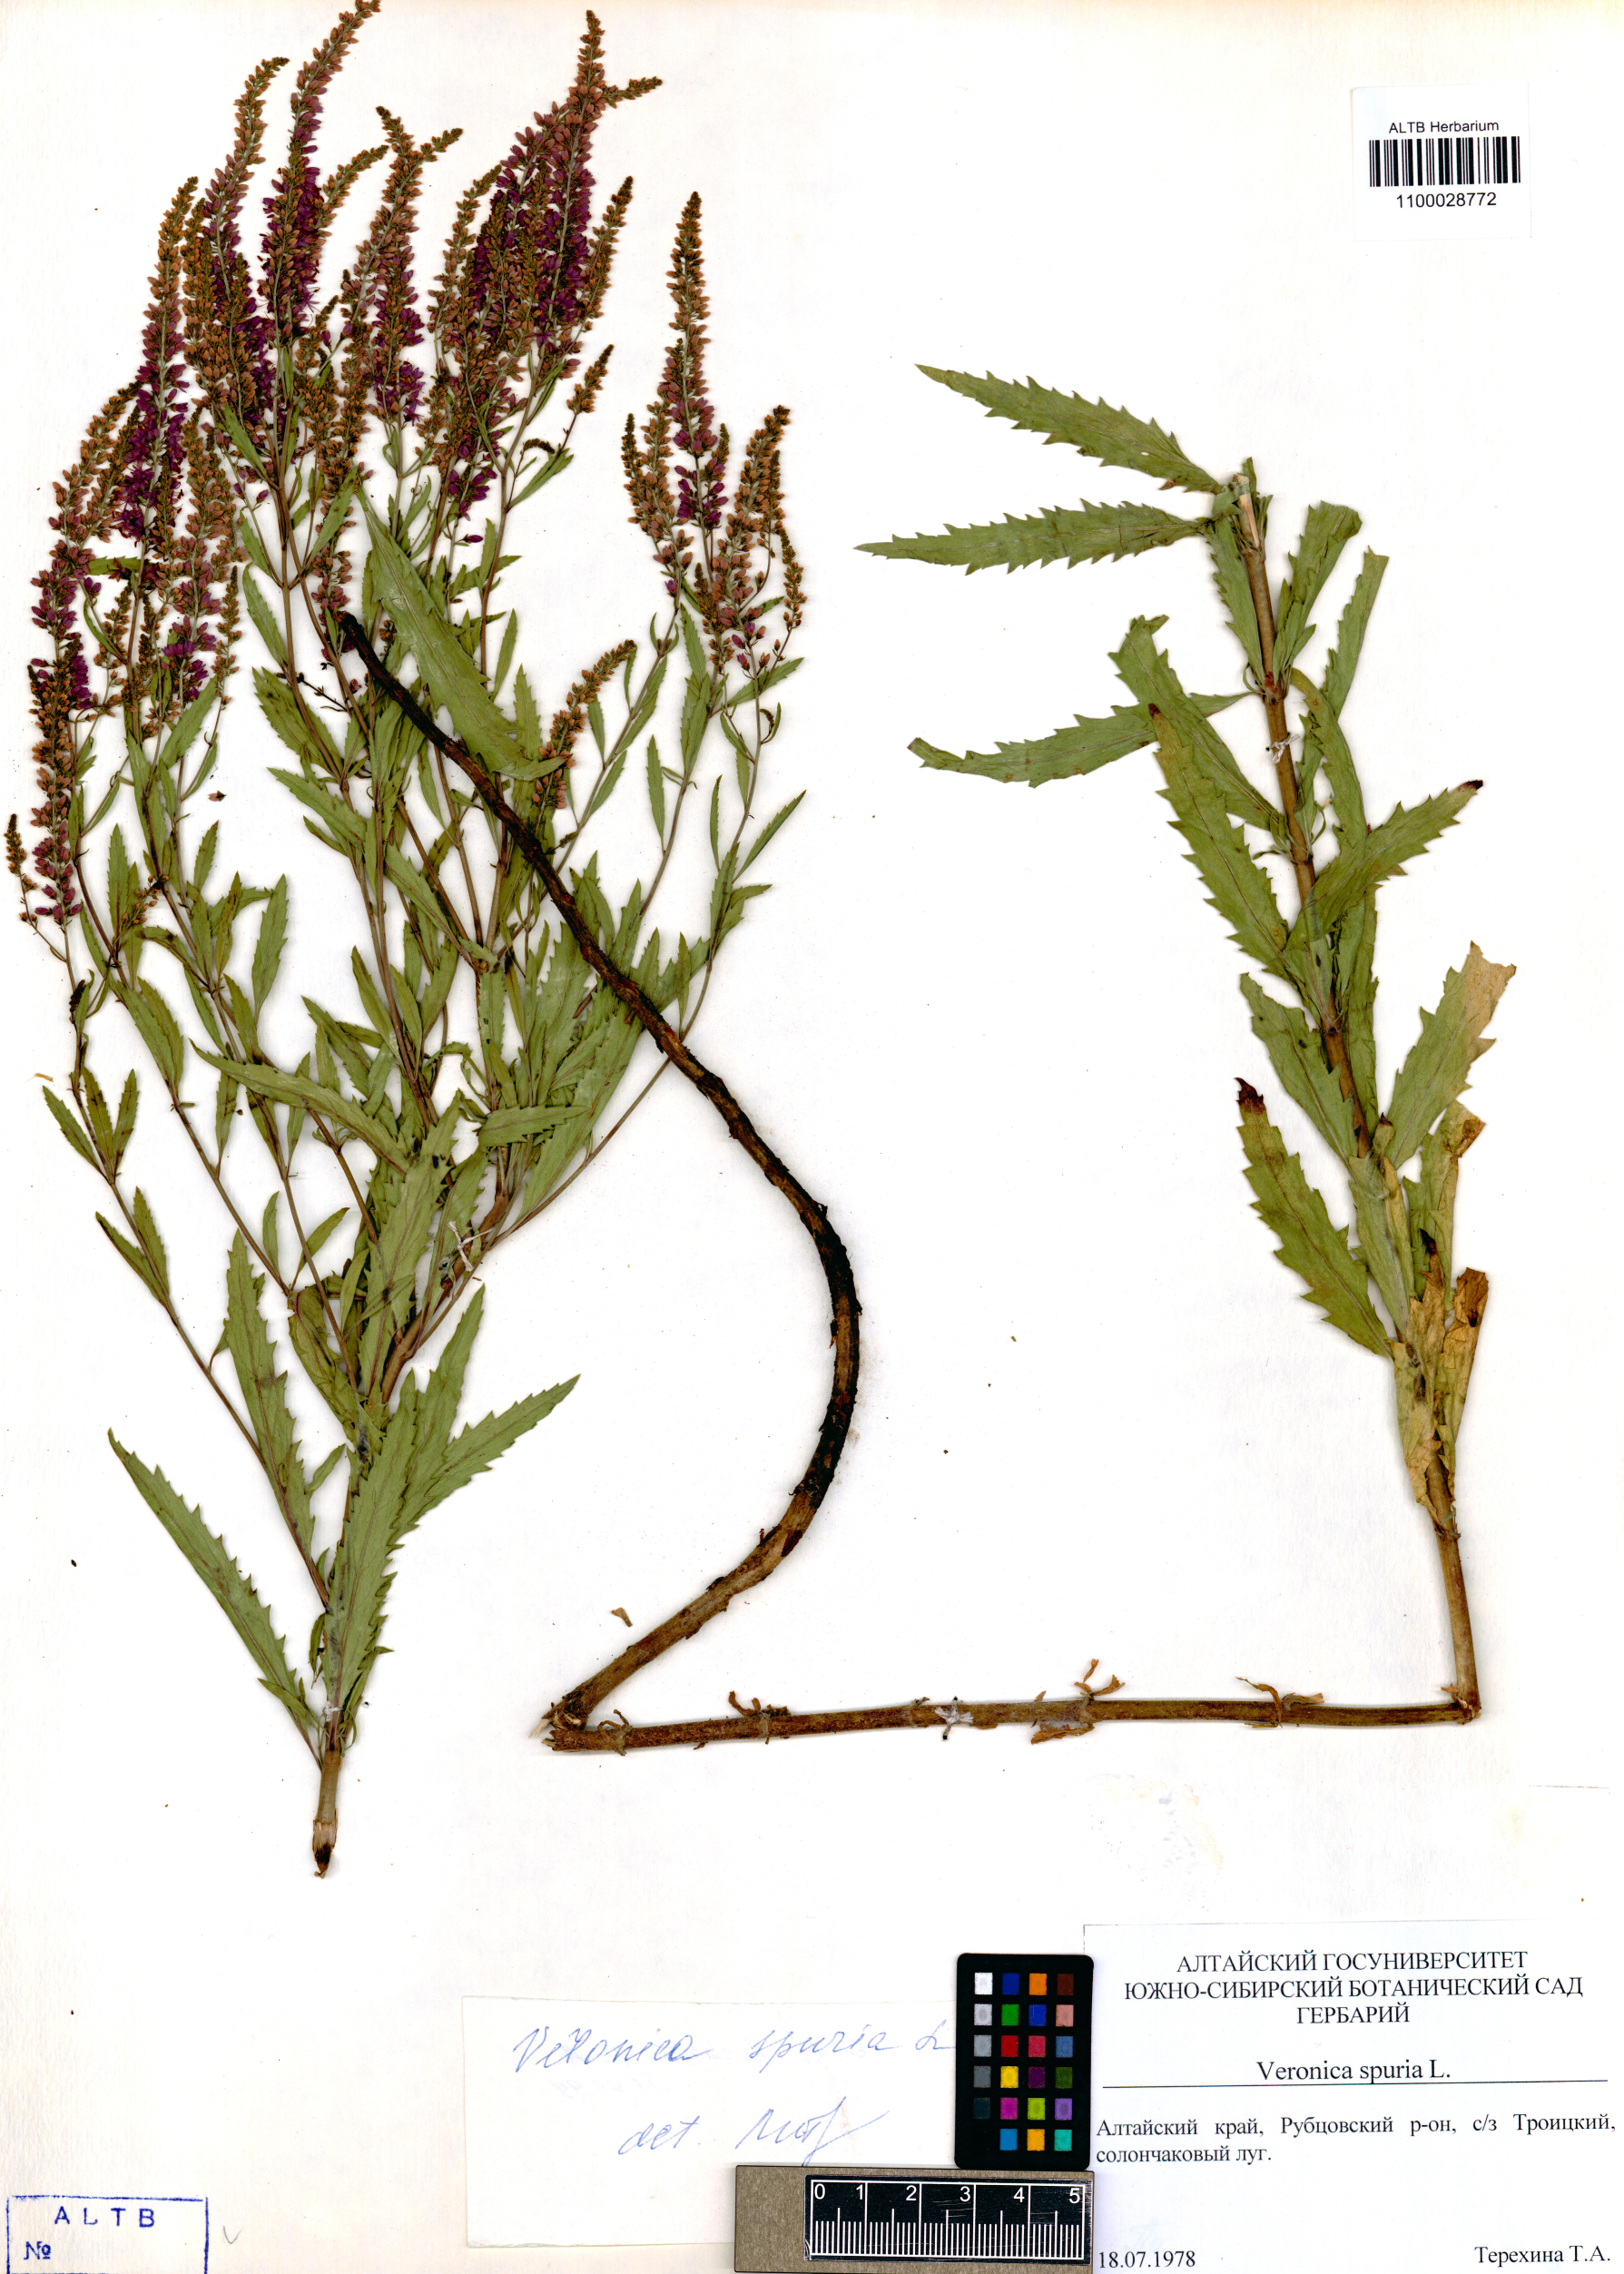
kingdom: Plantae
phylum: Tracheophyta
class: Magnoliopsida
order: Lamiales
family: Plantaginaceae
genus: Veronica
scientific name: Veronica spuria
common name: Bastard speedwell
